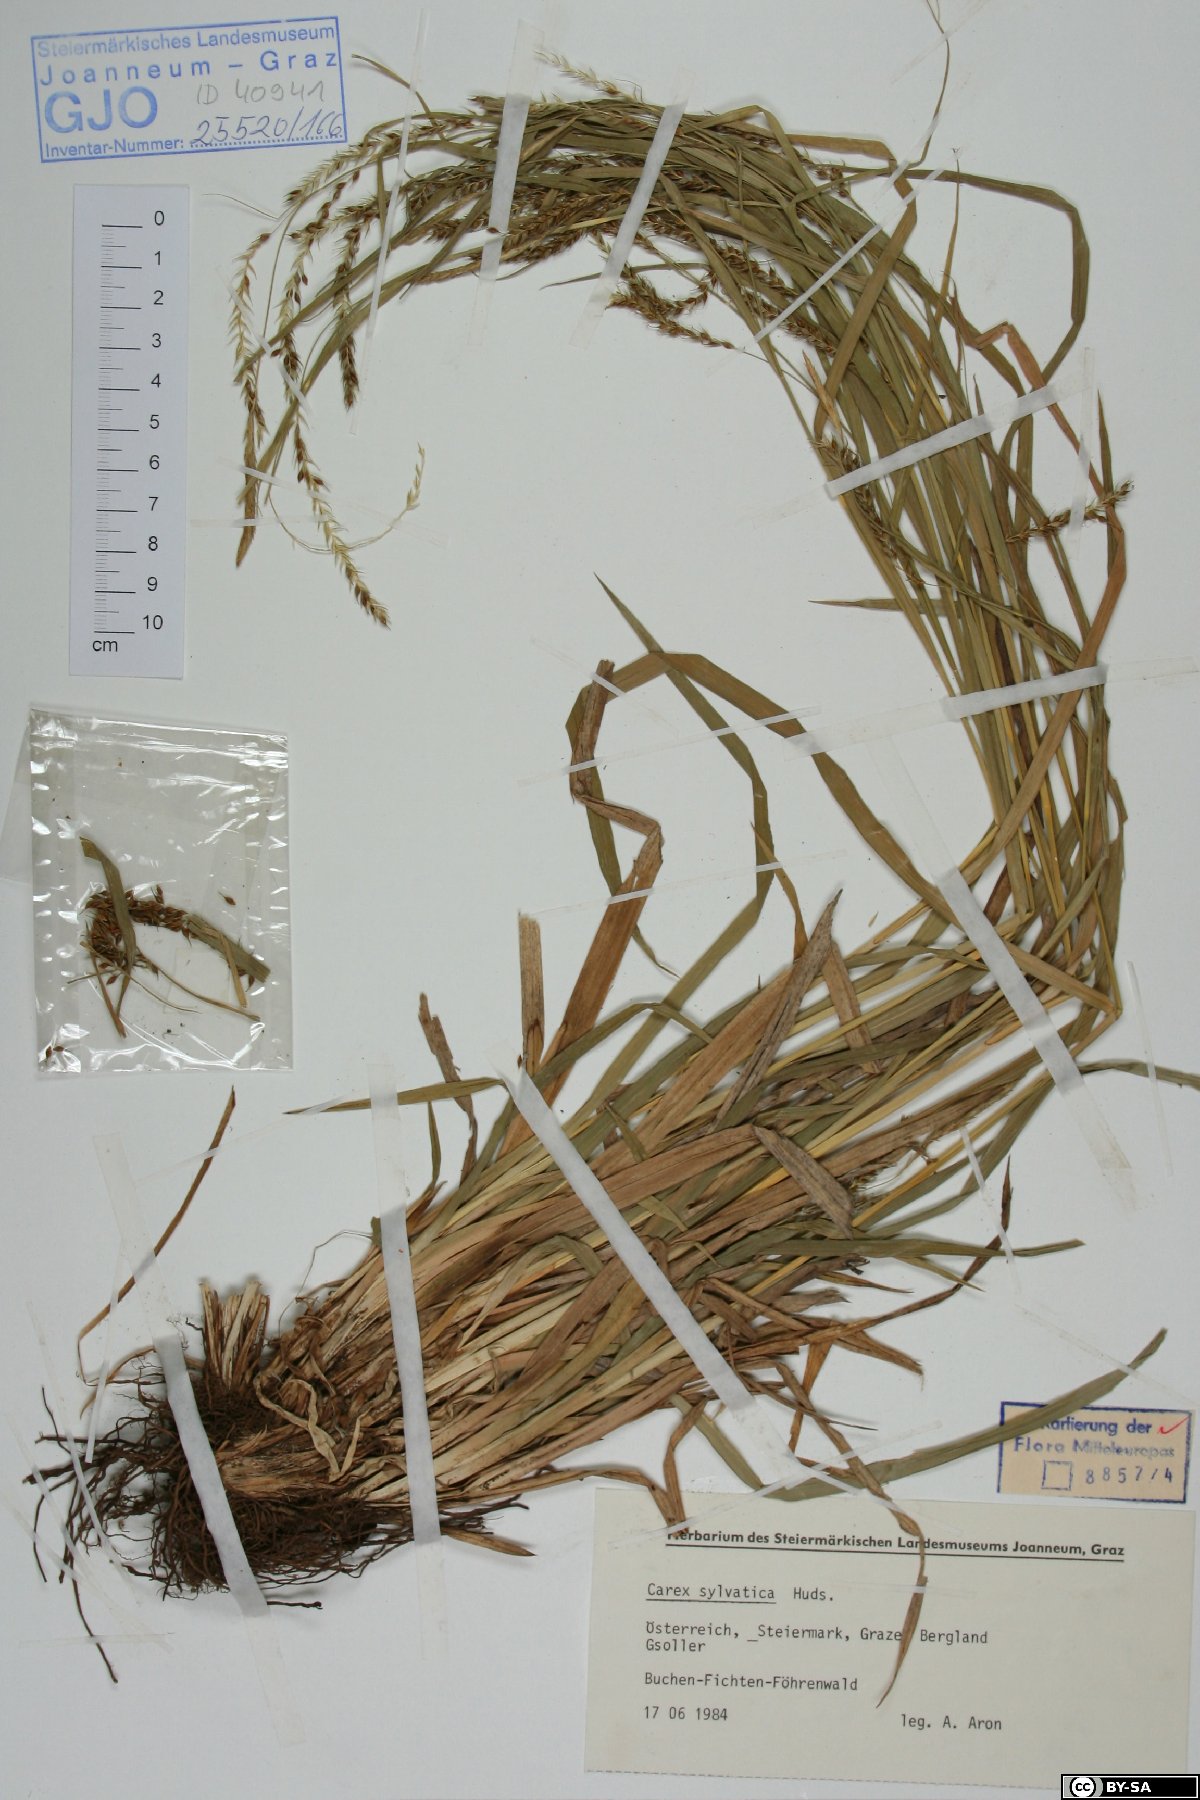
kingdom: Plantae
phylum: Tracheophyta
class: Liliopsida
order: Poales
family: Cyperaceae
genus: Carex
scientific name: Carex sylvatica
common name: Wood-sedge
